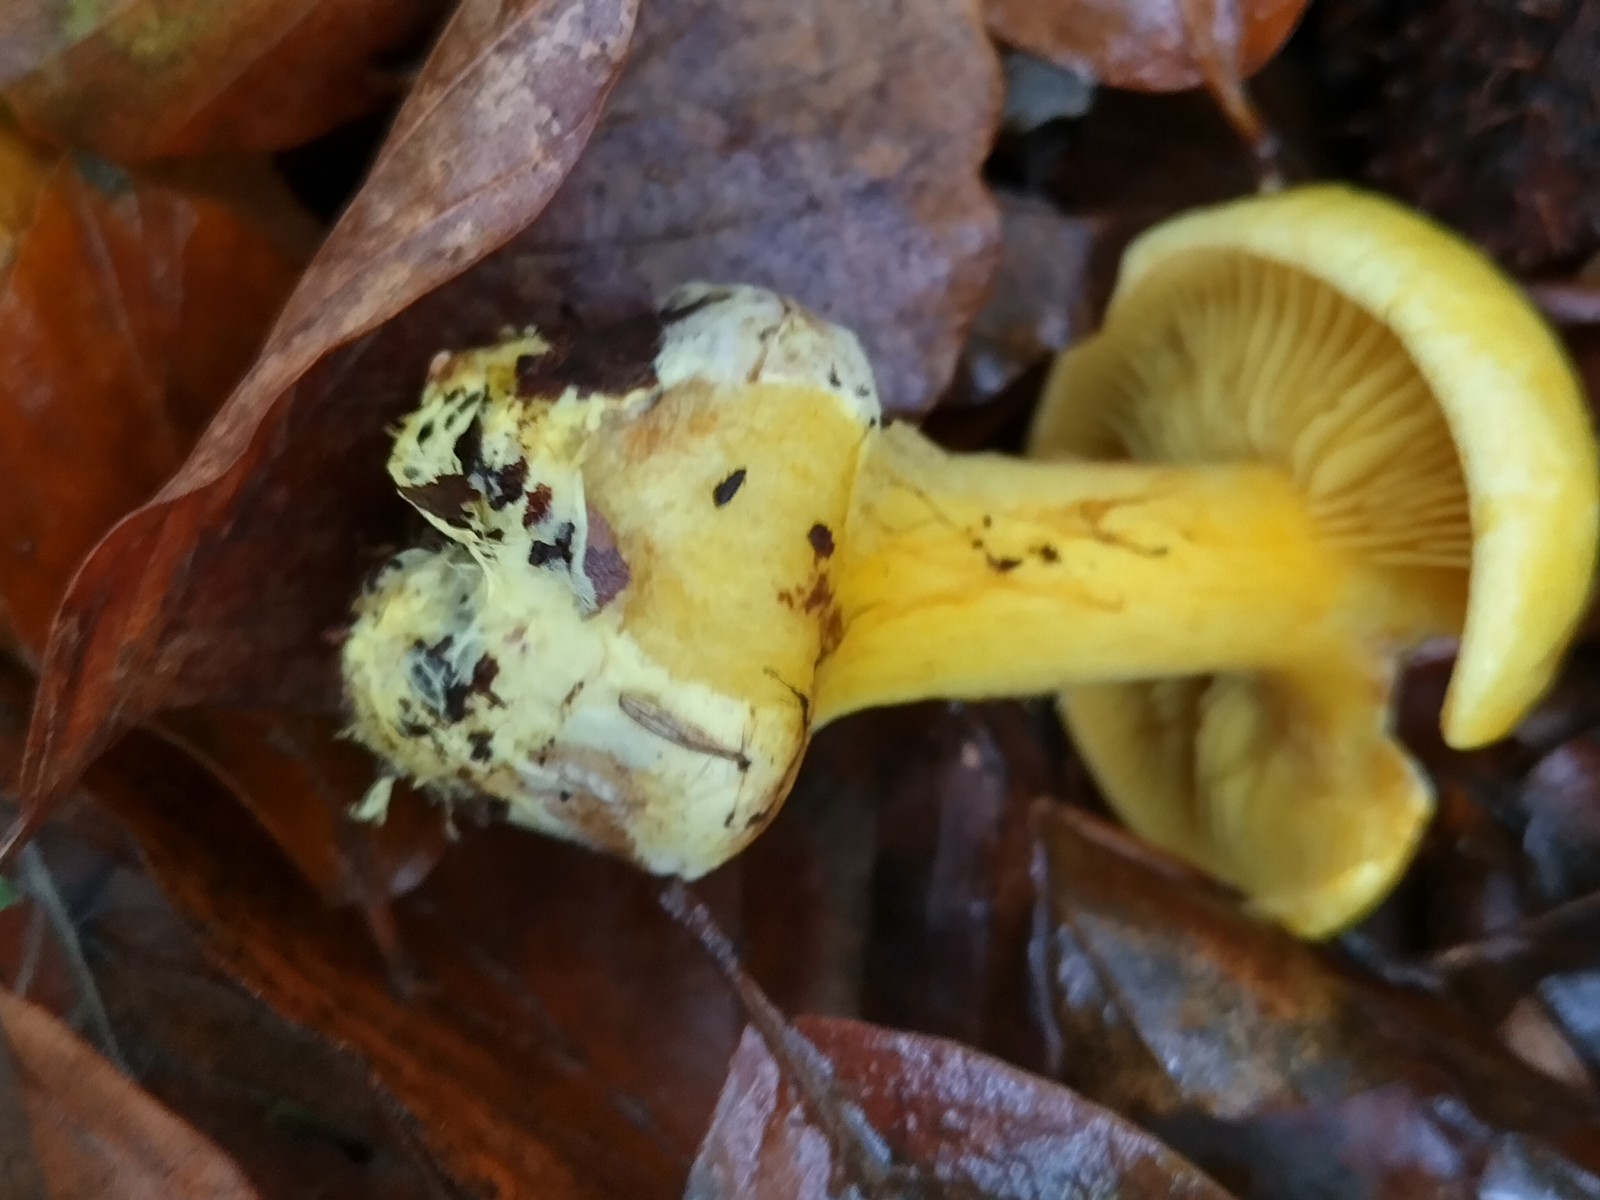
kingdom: Fungi
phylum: Basidiomycota
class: Agaricomycetes
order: Agaricales
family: Cortinariaceae
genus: Calonarius
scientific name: Calonarius splendens
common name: sirene-slørhat
